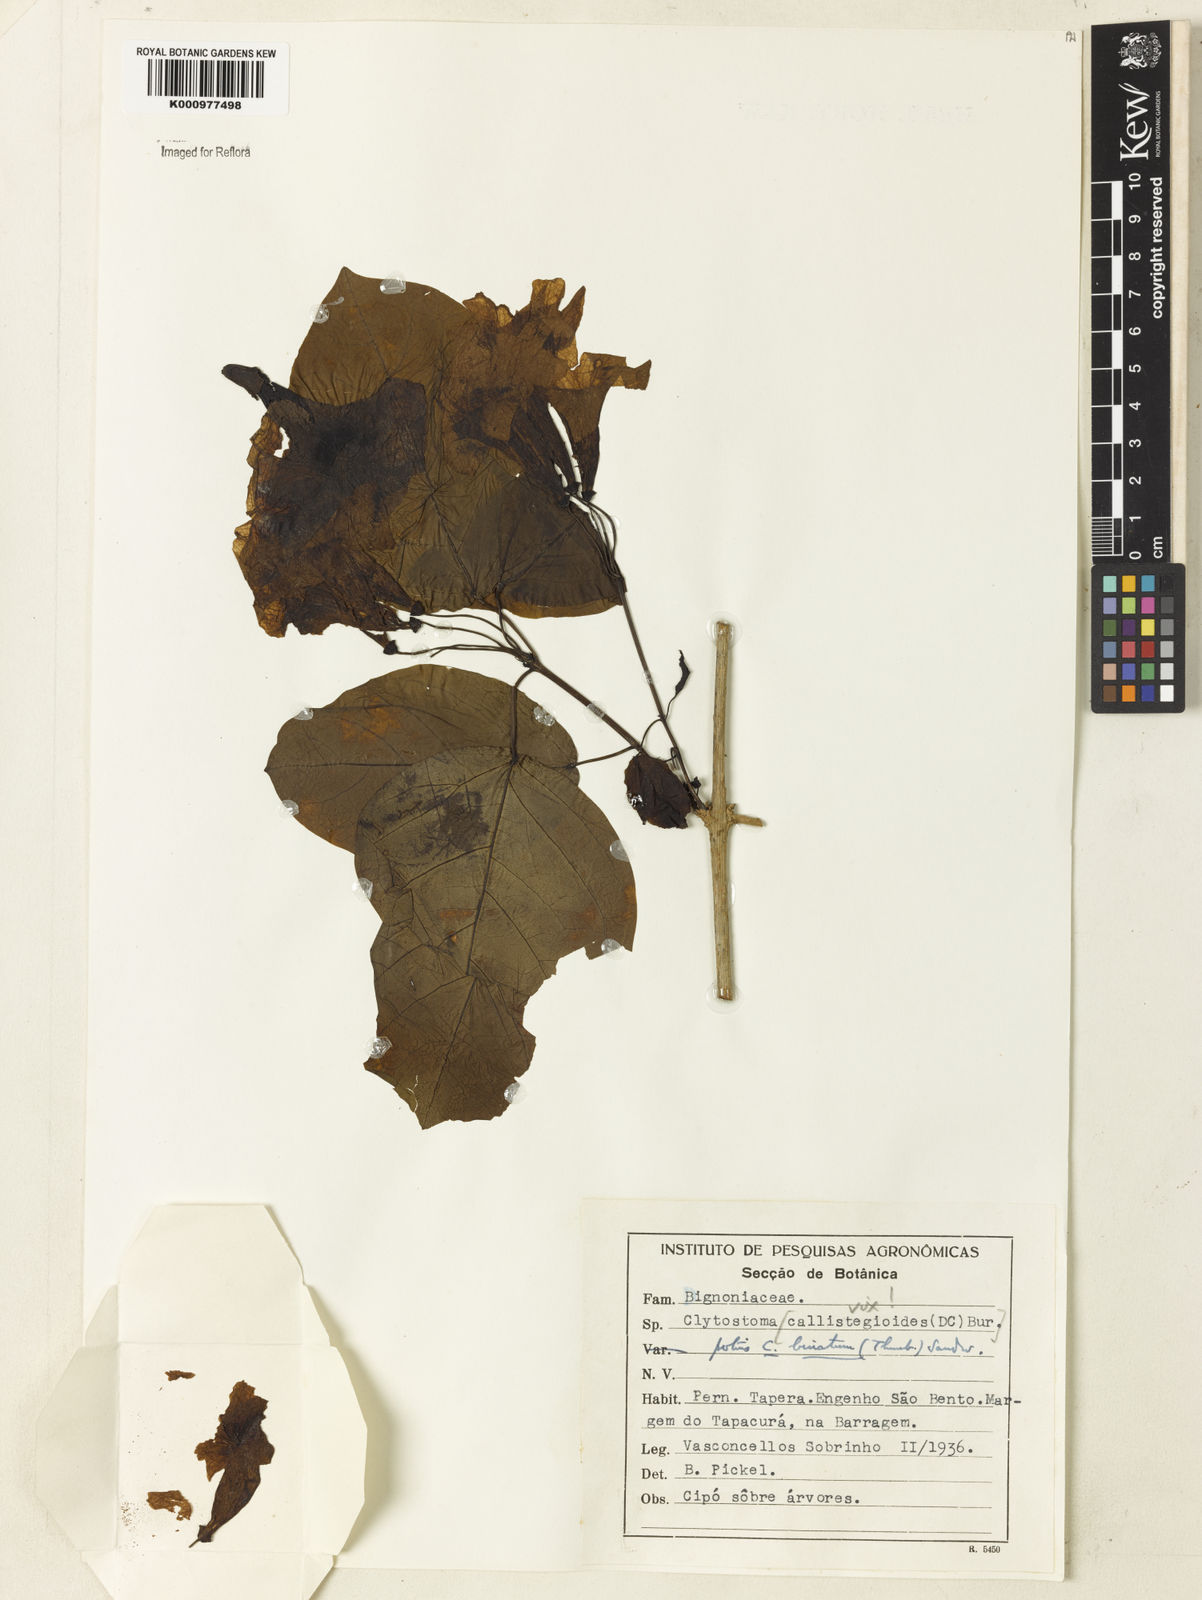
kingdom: Plantae
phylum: Tracheophyta
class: Magnoliopsida
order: Lamiales
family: Bignoniaceae
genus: Bignonia
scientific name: Bignonia binata
